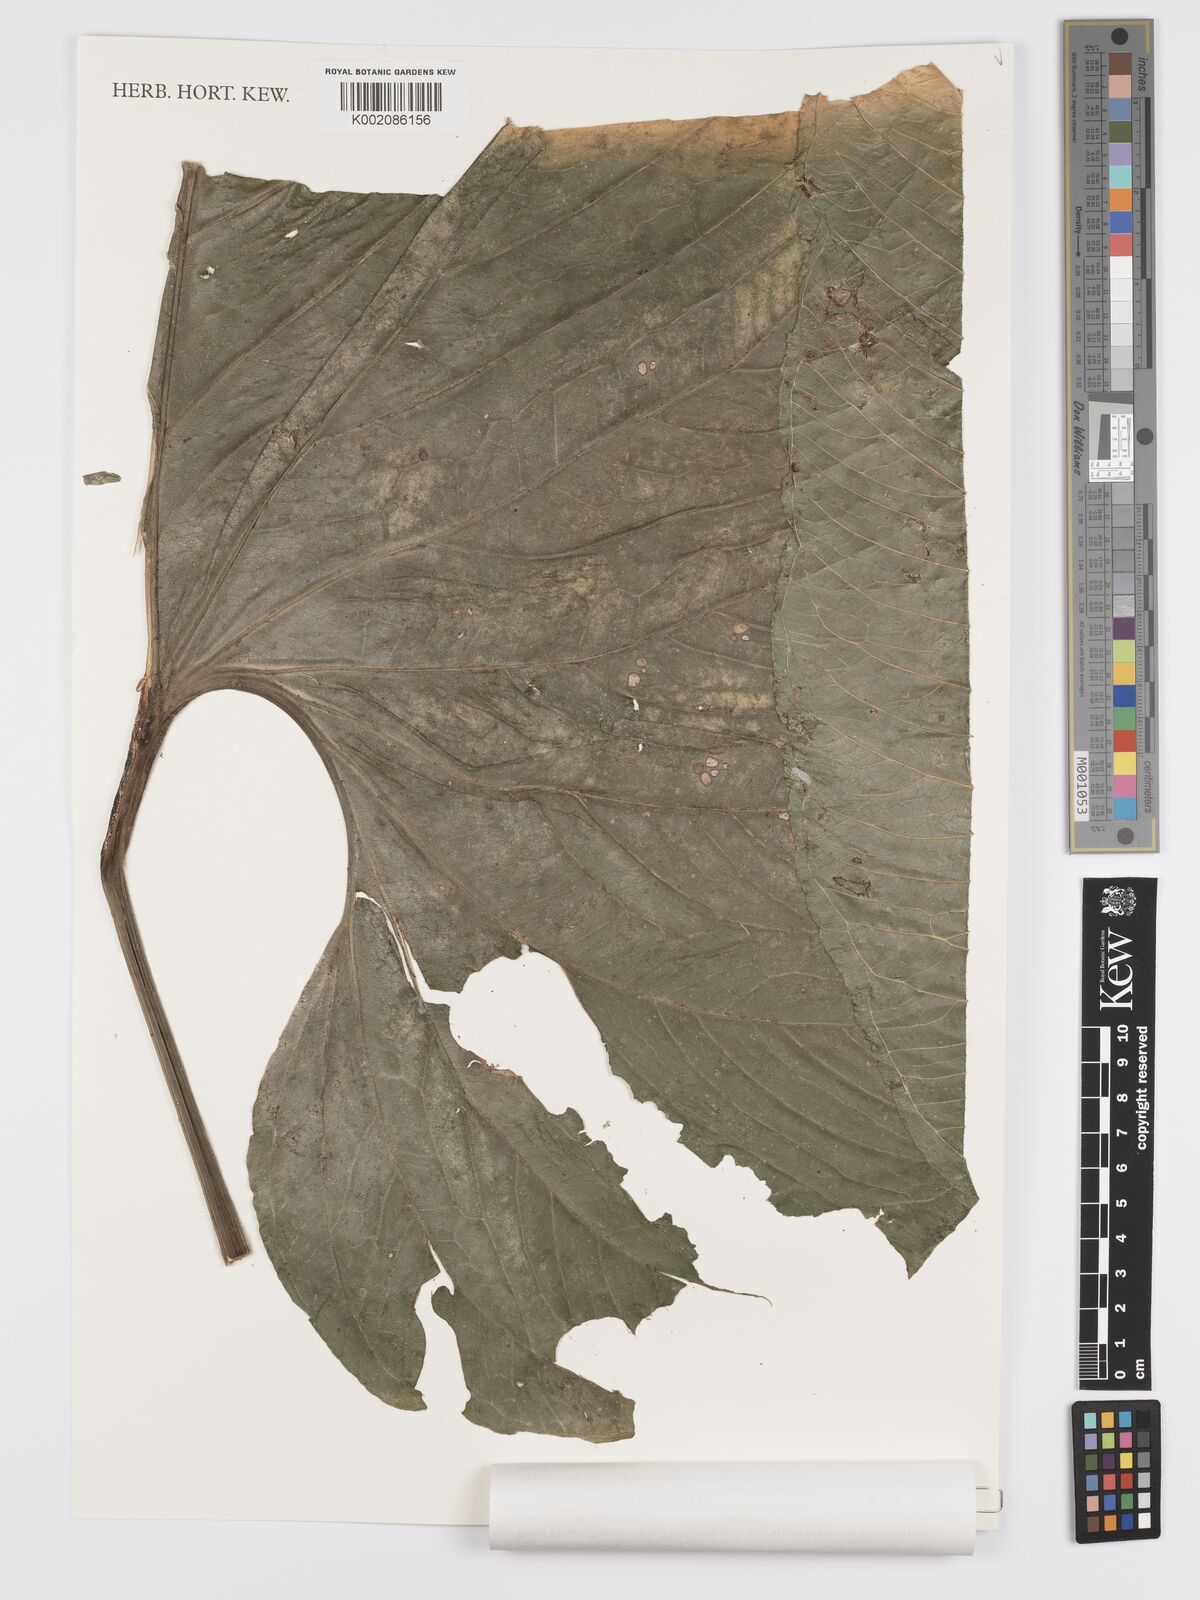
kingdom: Plantae
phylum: Tracheophyta
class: Liliopsida
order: Alismatales
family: Araceae
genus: Anthurium
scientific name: Anthurium giganteum
